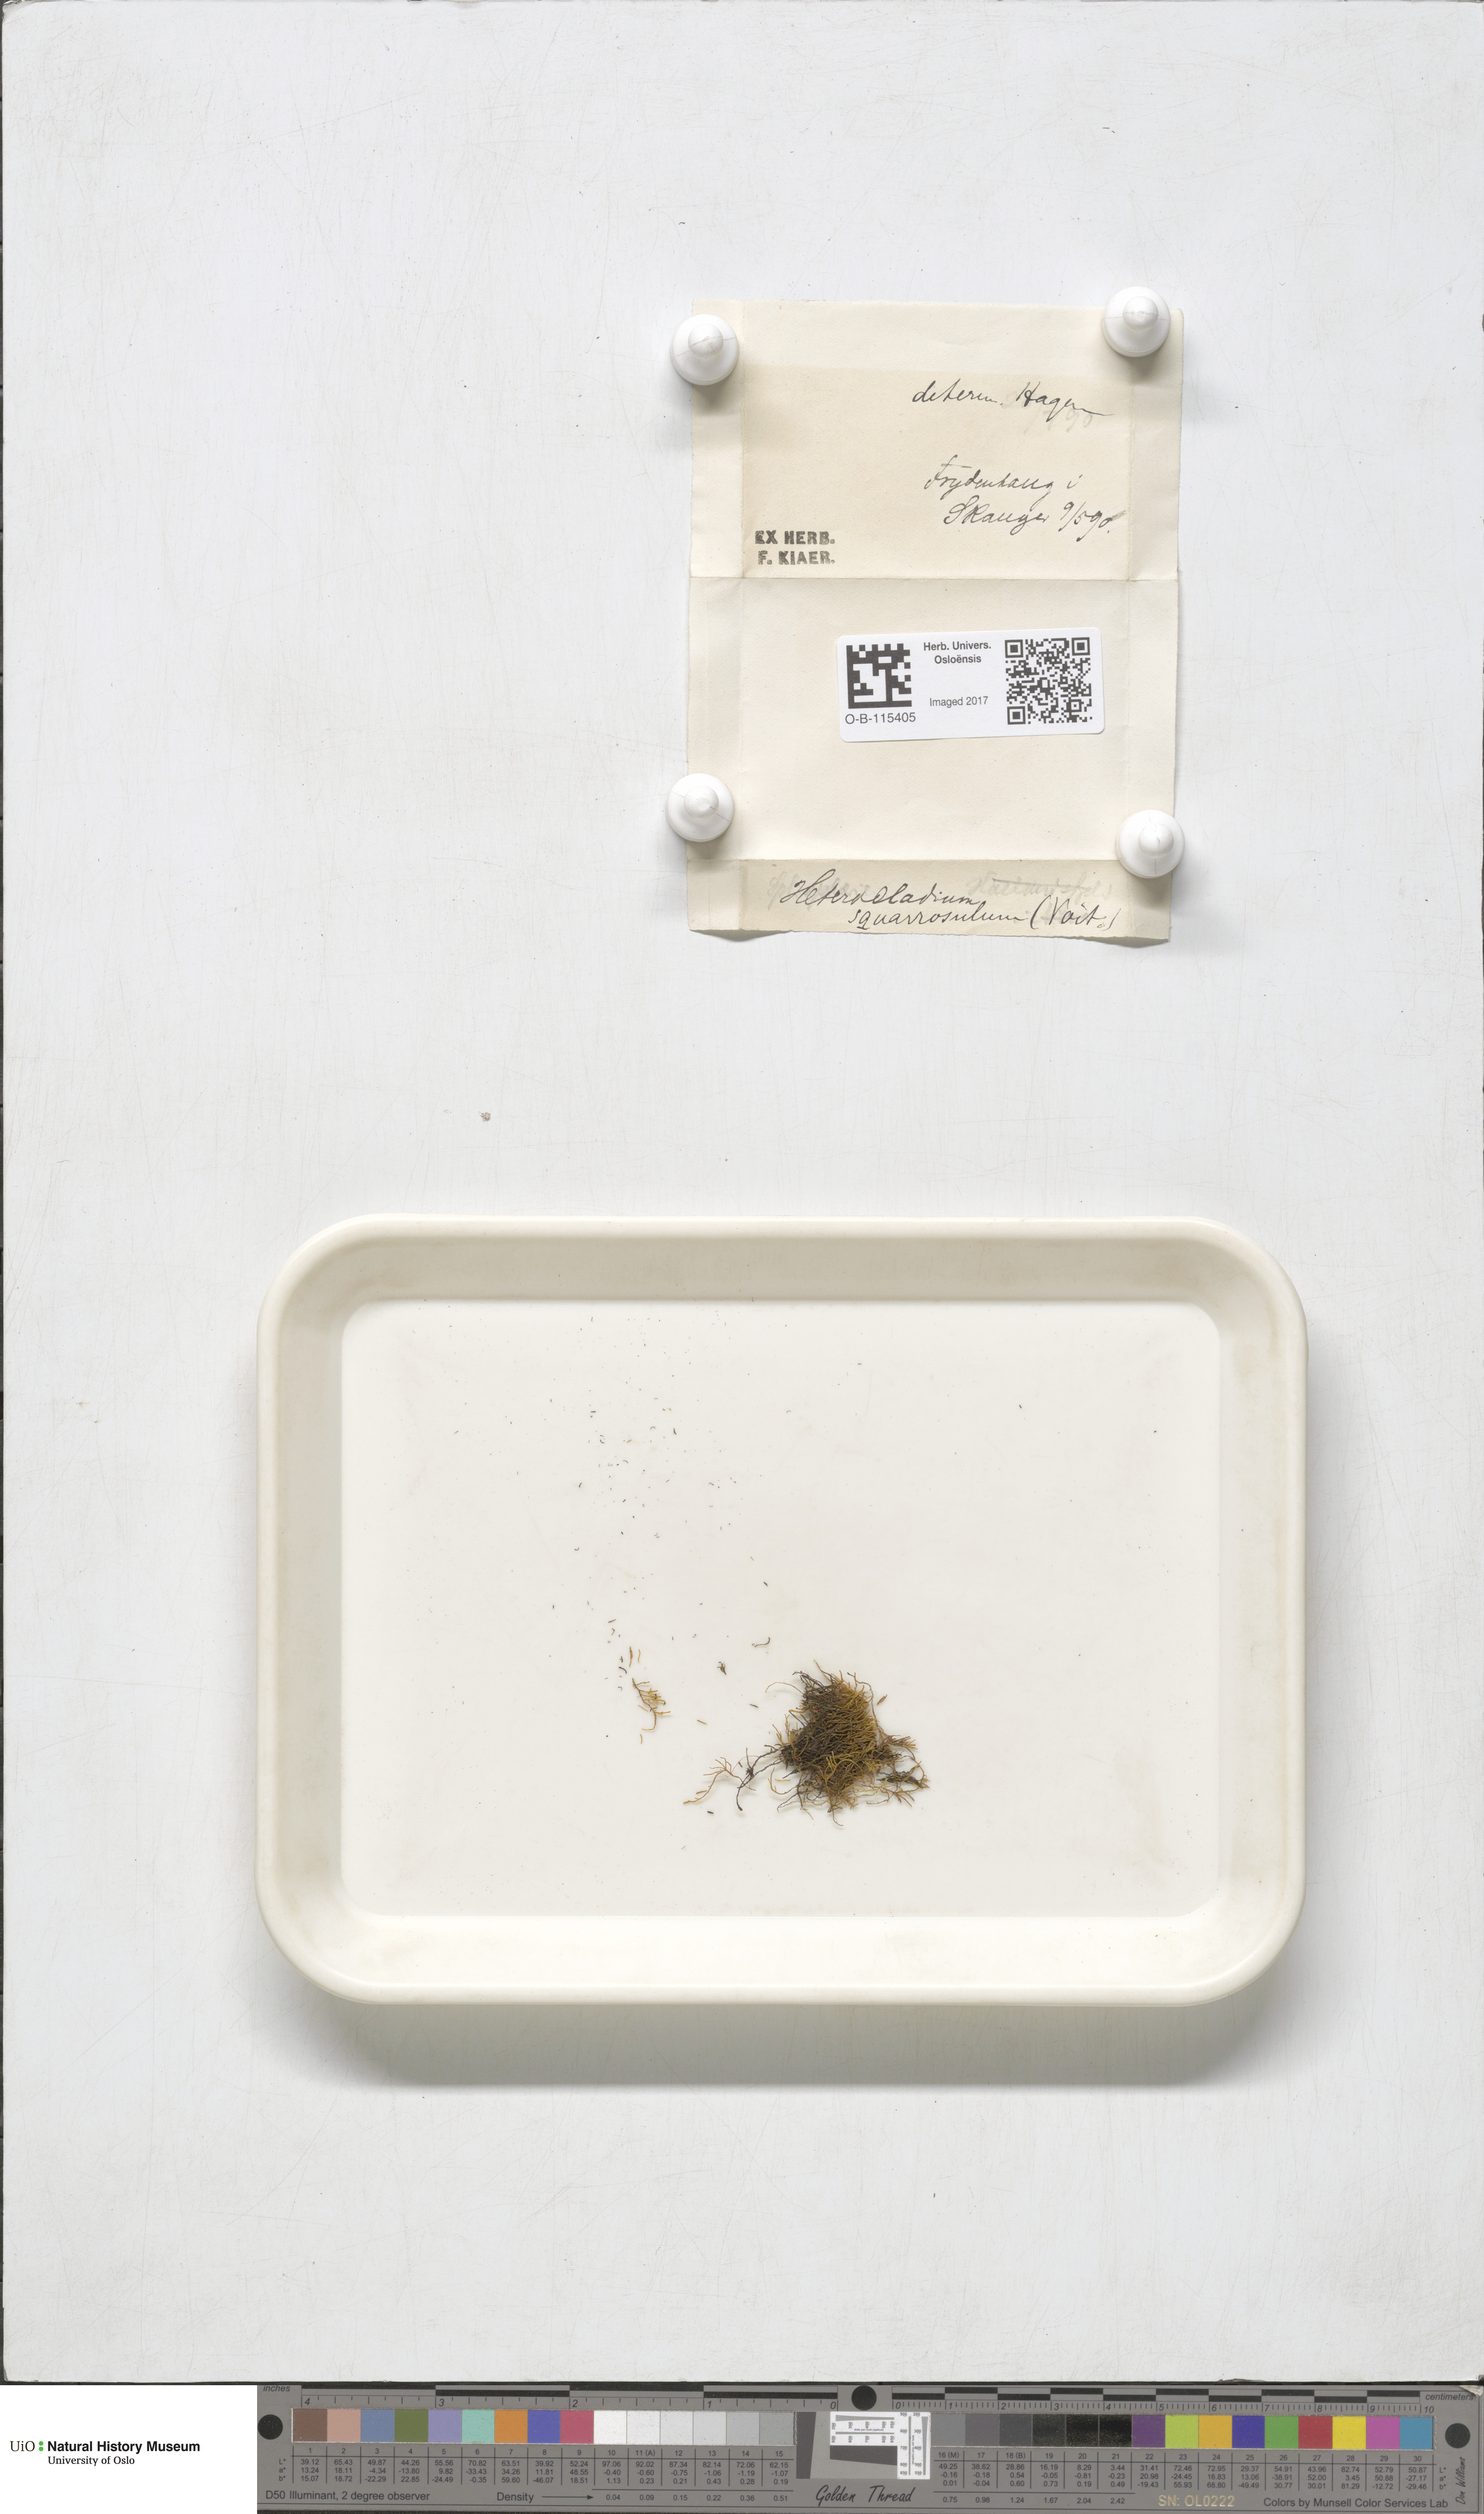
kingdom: Plantae
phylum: Bryophyta
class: Bryopsida
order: Hypnales
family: Heterocladiellaceae
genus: Heterocladiella
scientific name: Heterocladiella dimorpha
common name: Dimorphous tamarisk-moss
